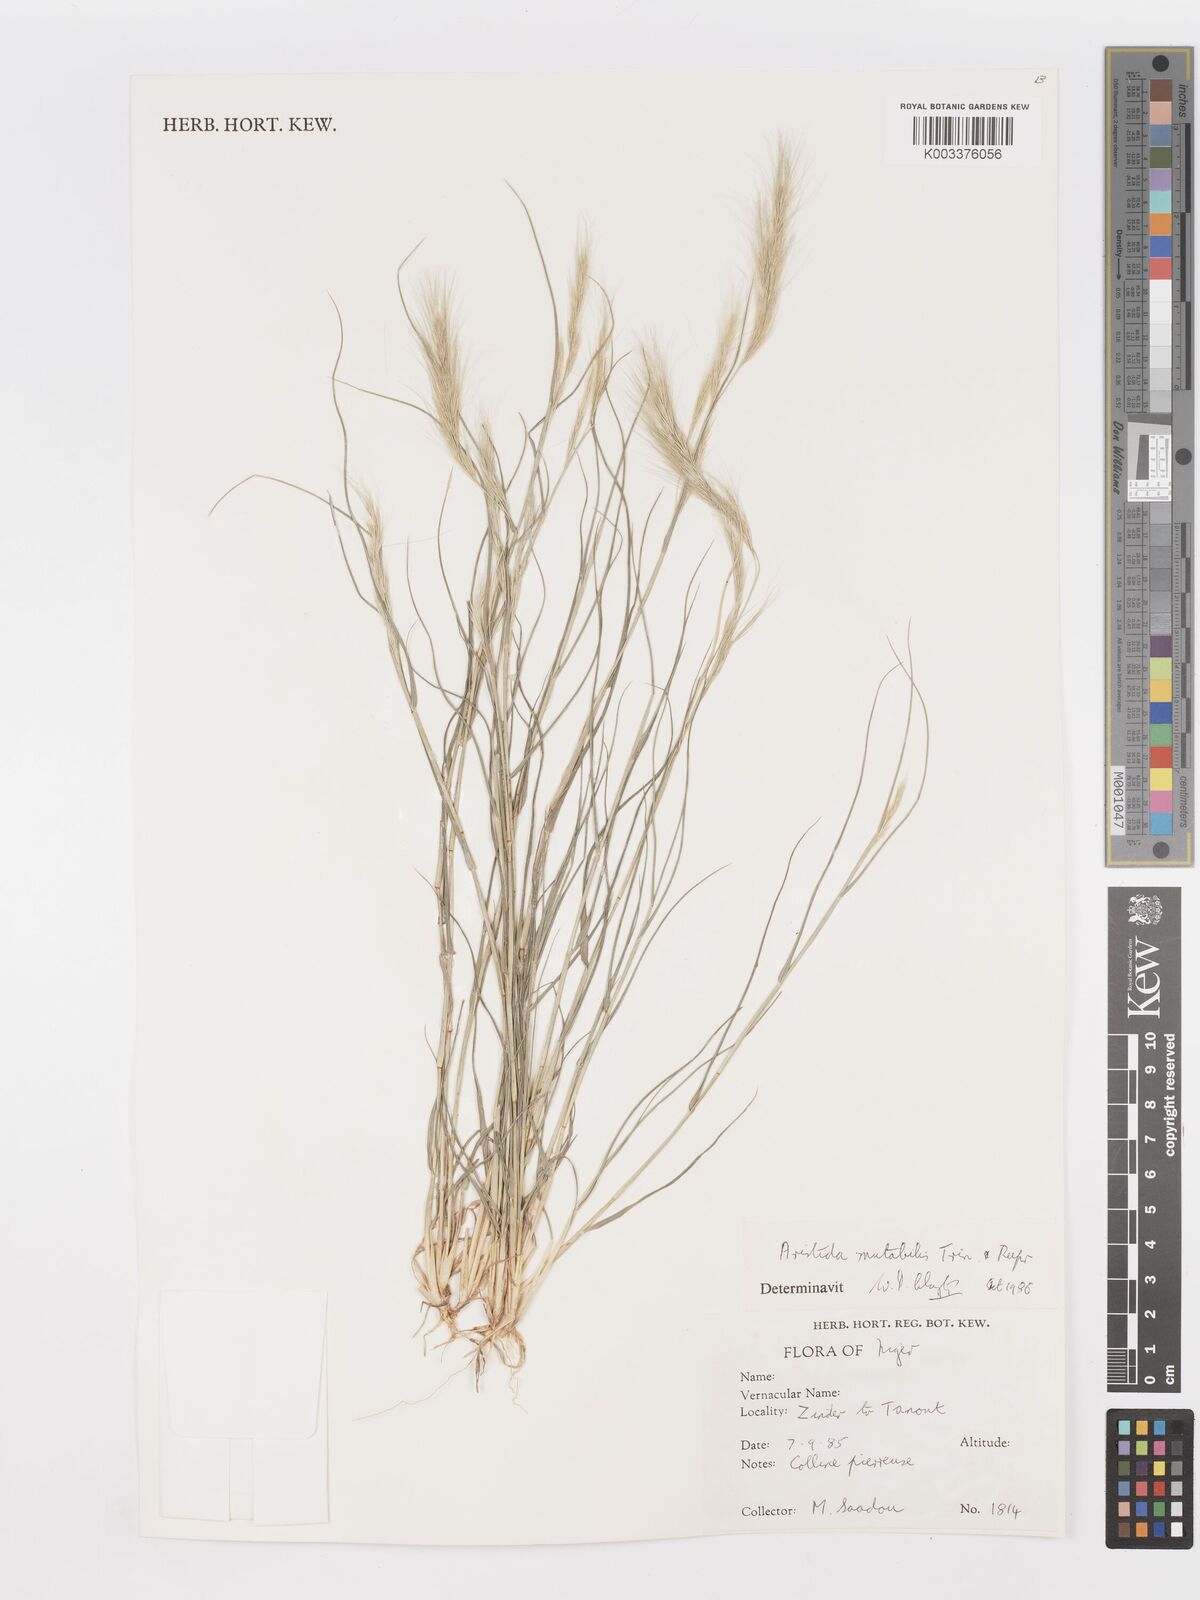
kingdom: Plantae
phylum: Tracheophyta
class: Liliopsida
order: Poales
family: Poaceae
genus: Aristida
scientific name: Aristida mutabilis
